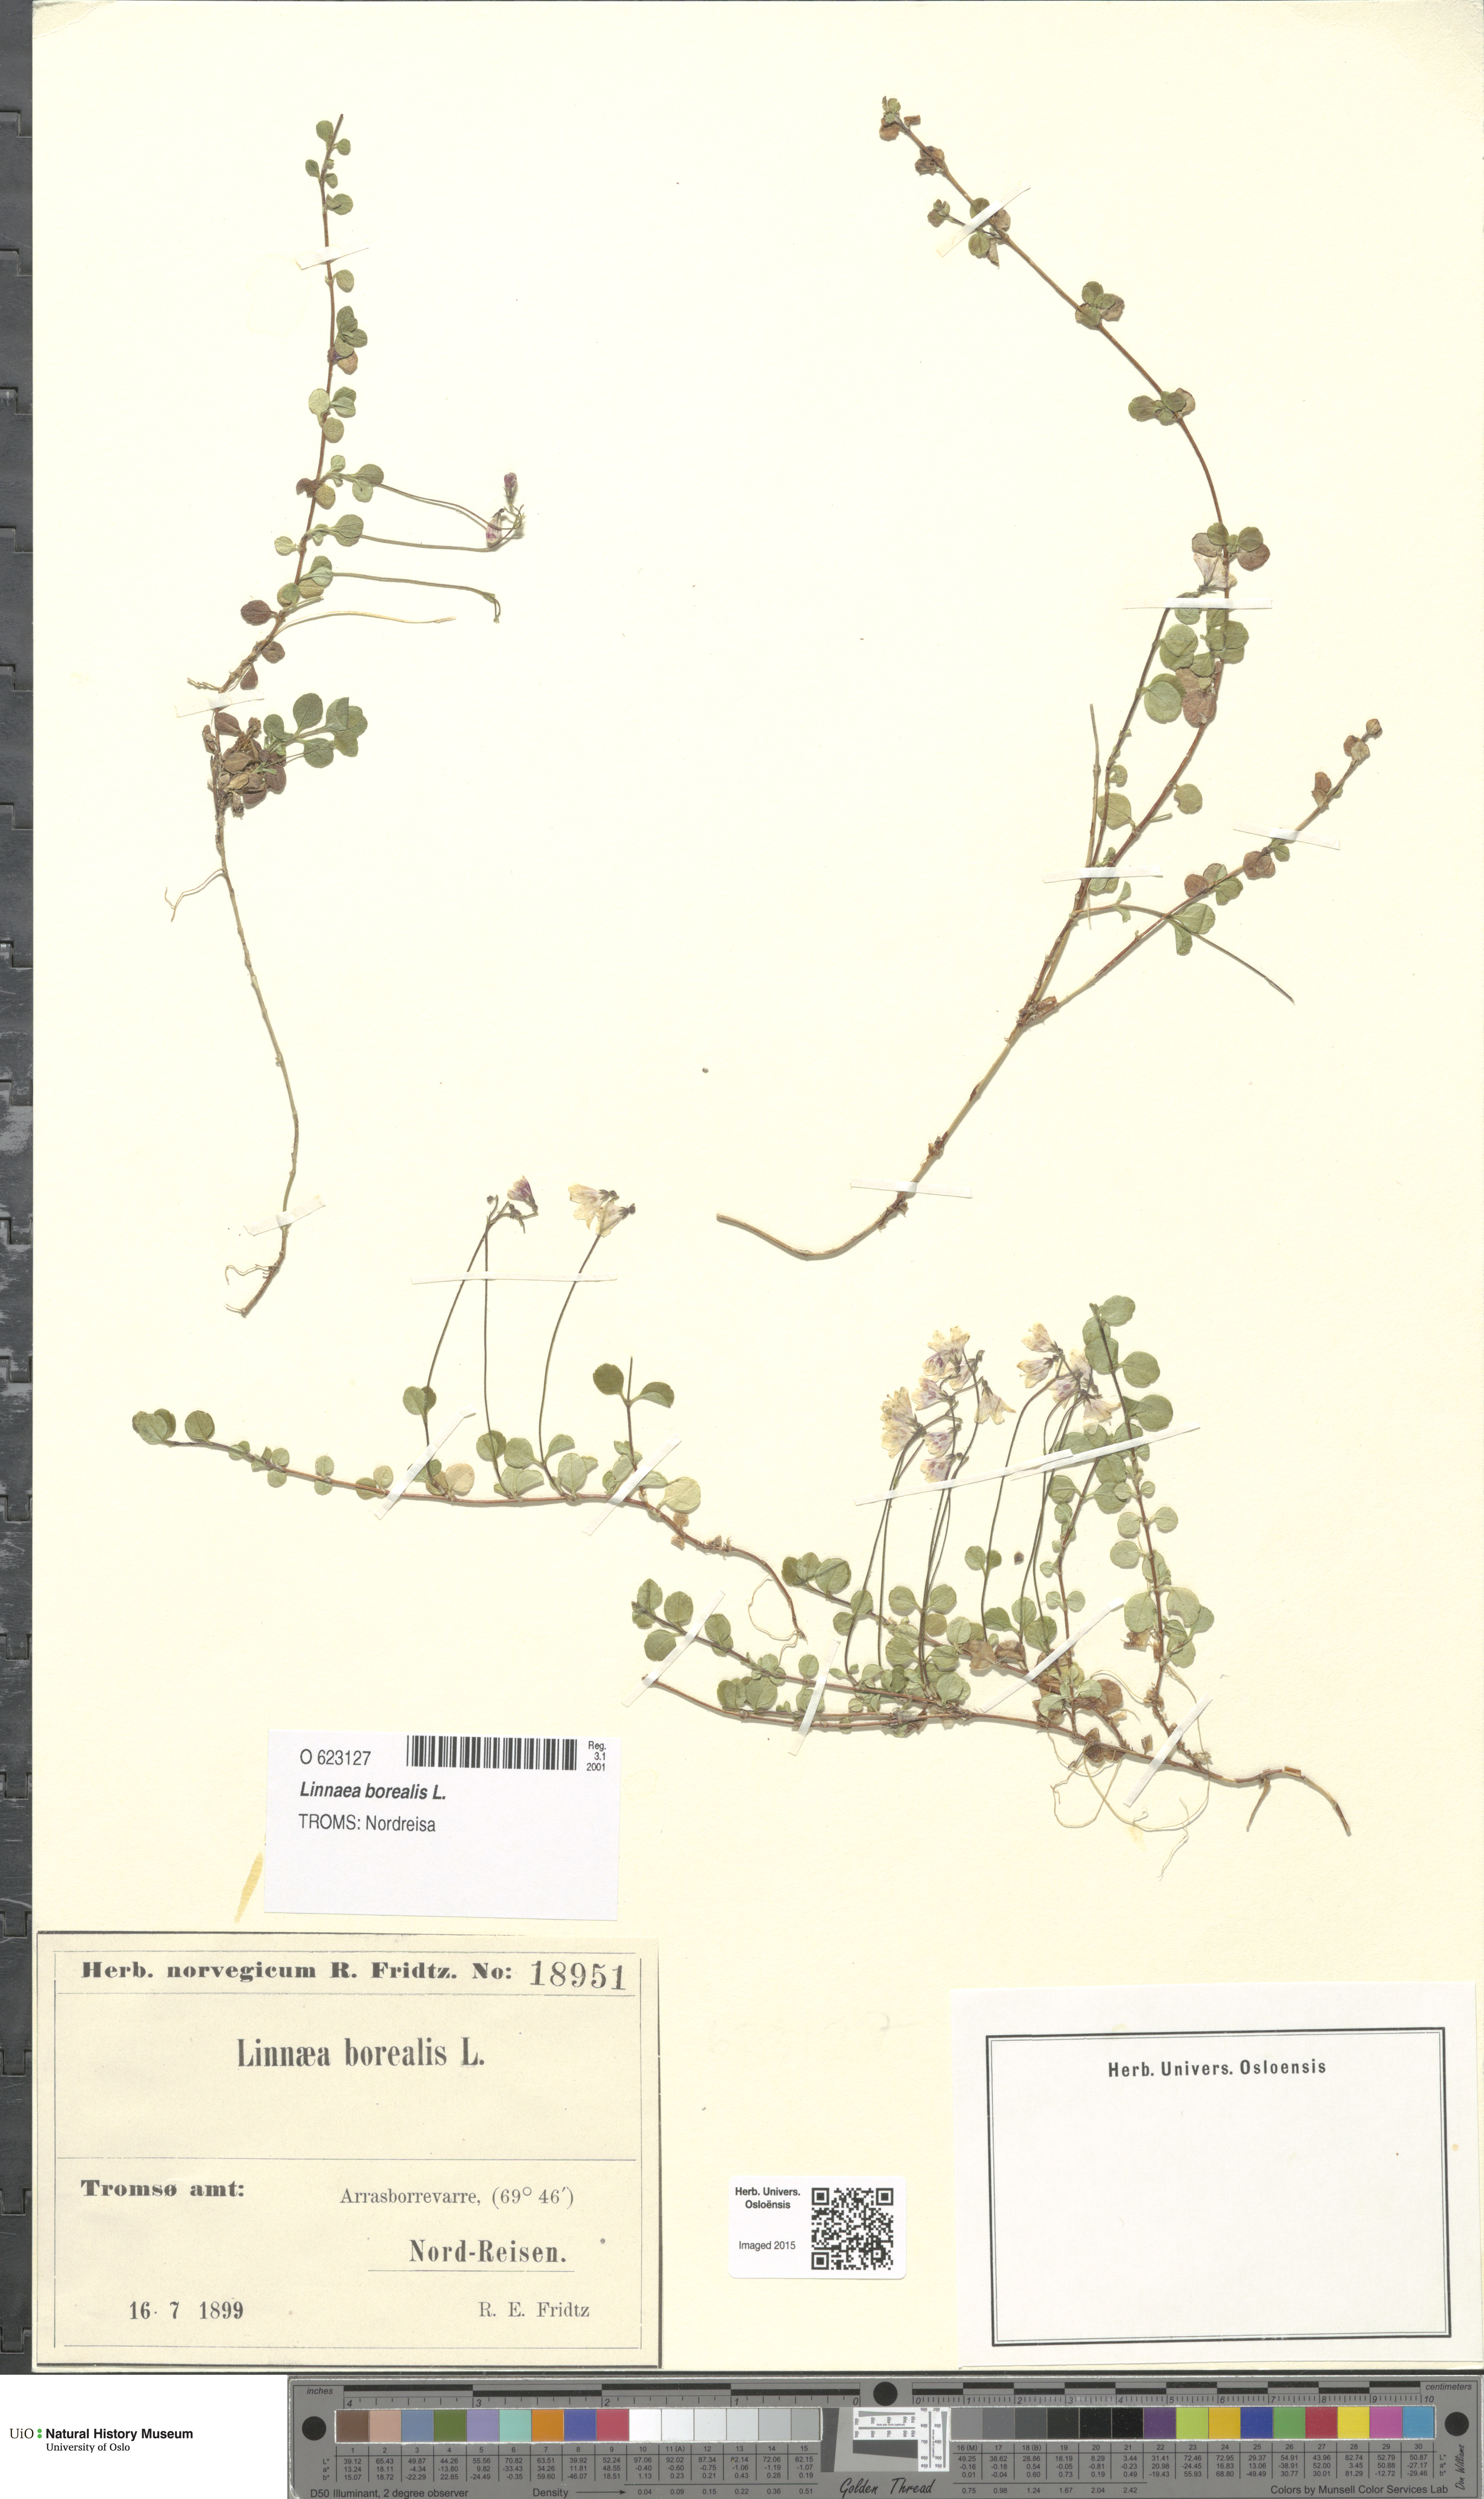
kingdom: Plantae
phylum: Tracheophyta
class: Magnoliopsida
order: Dipsacales
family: Caprifoliaceae
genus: Linnaea
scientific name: Linnaea borealis
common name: Twinflower
